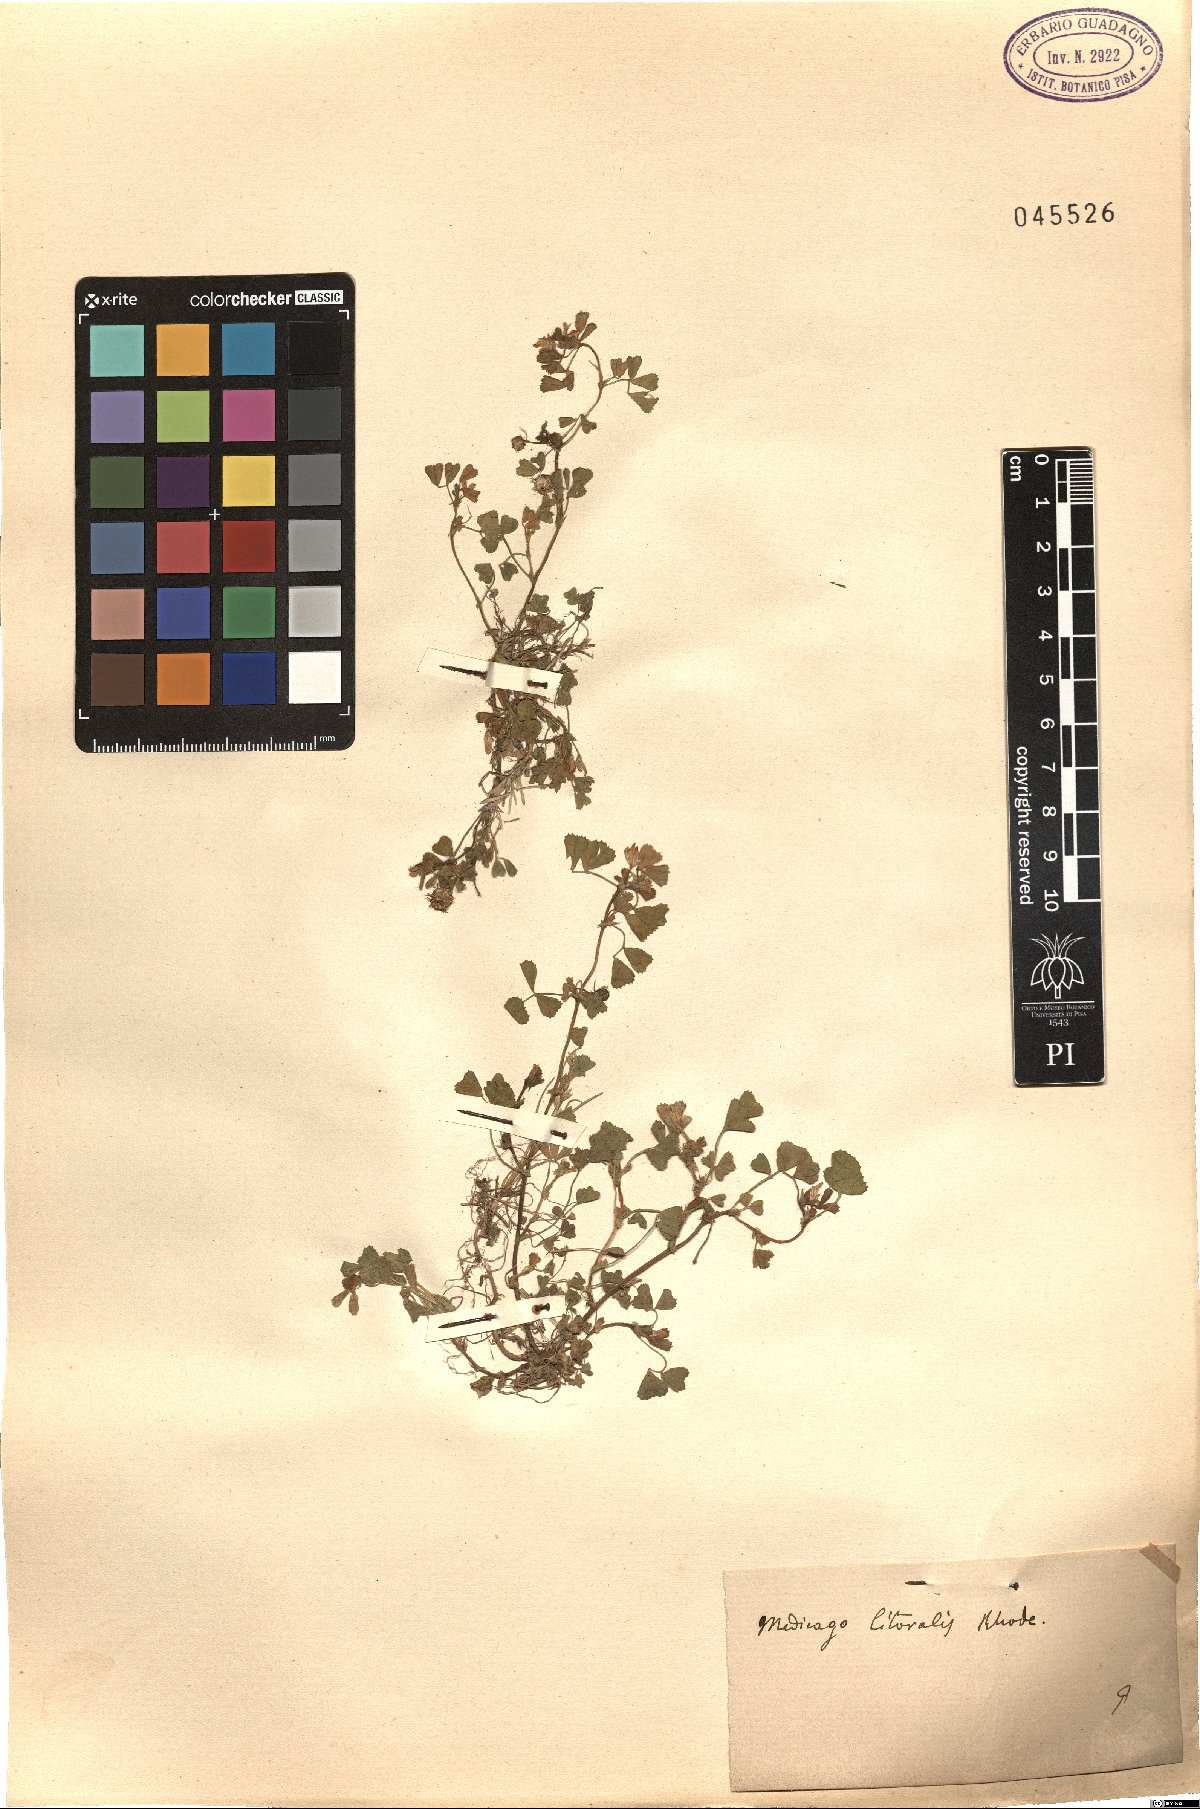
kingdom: Plantae
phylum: Tracheophyta
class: Magnoliopsida
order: Fabales
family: Fabaceae
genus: Medicago
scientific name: Medicago littoralis
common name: Shore medick
